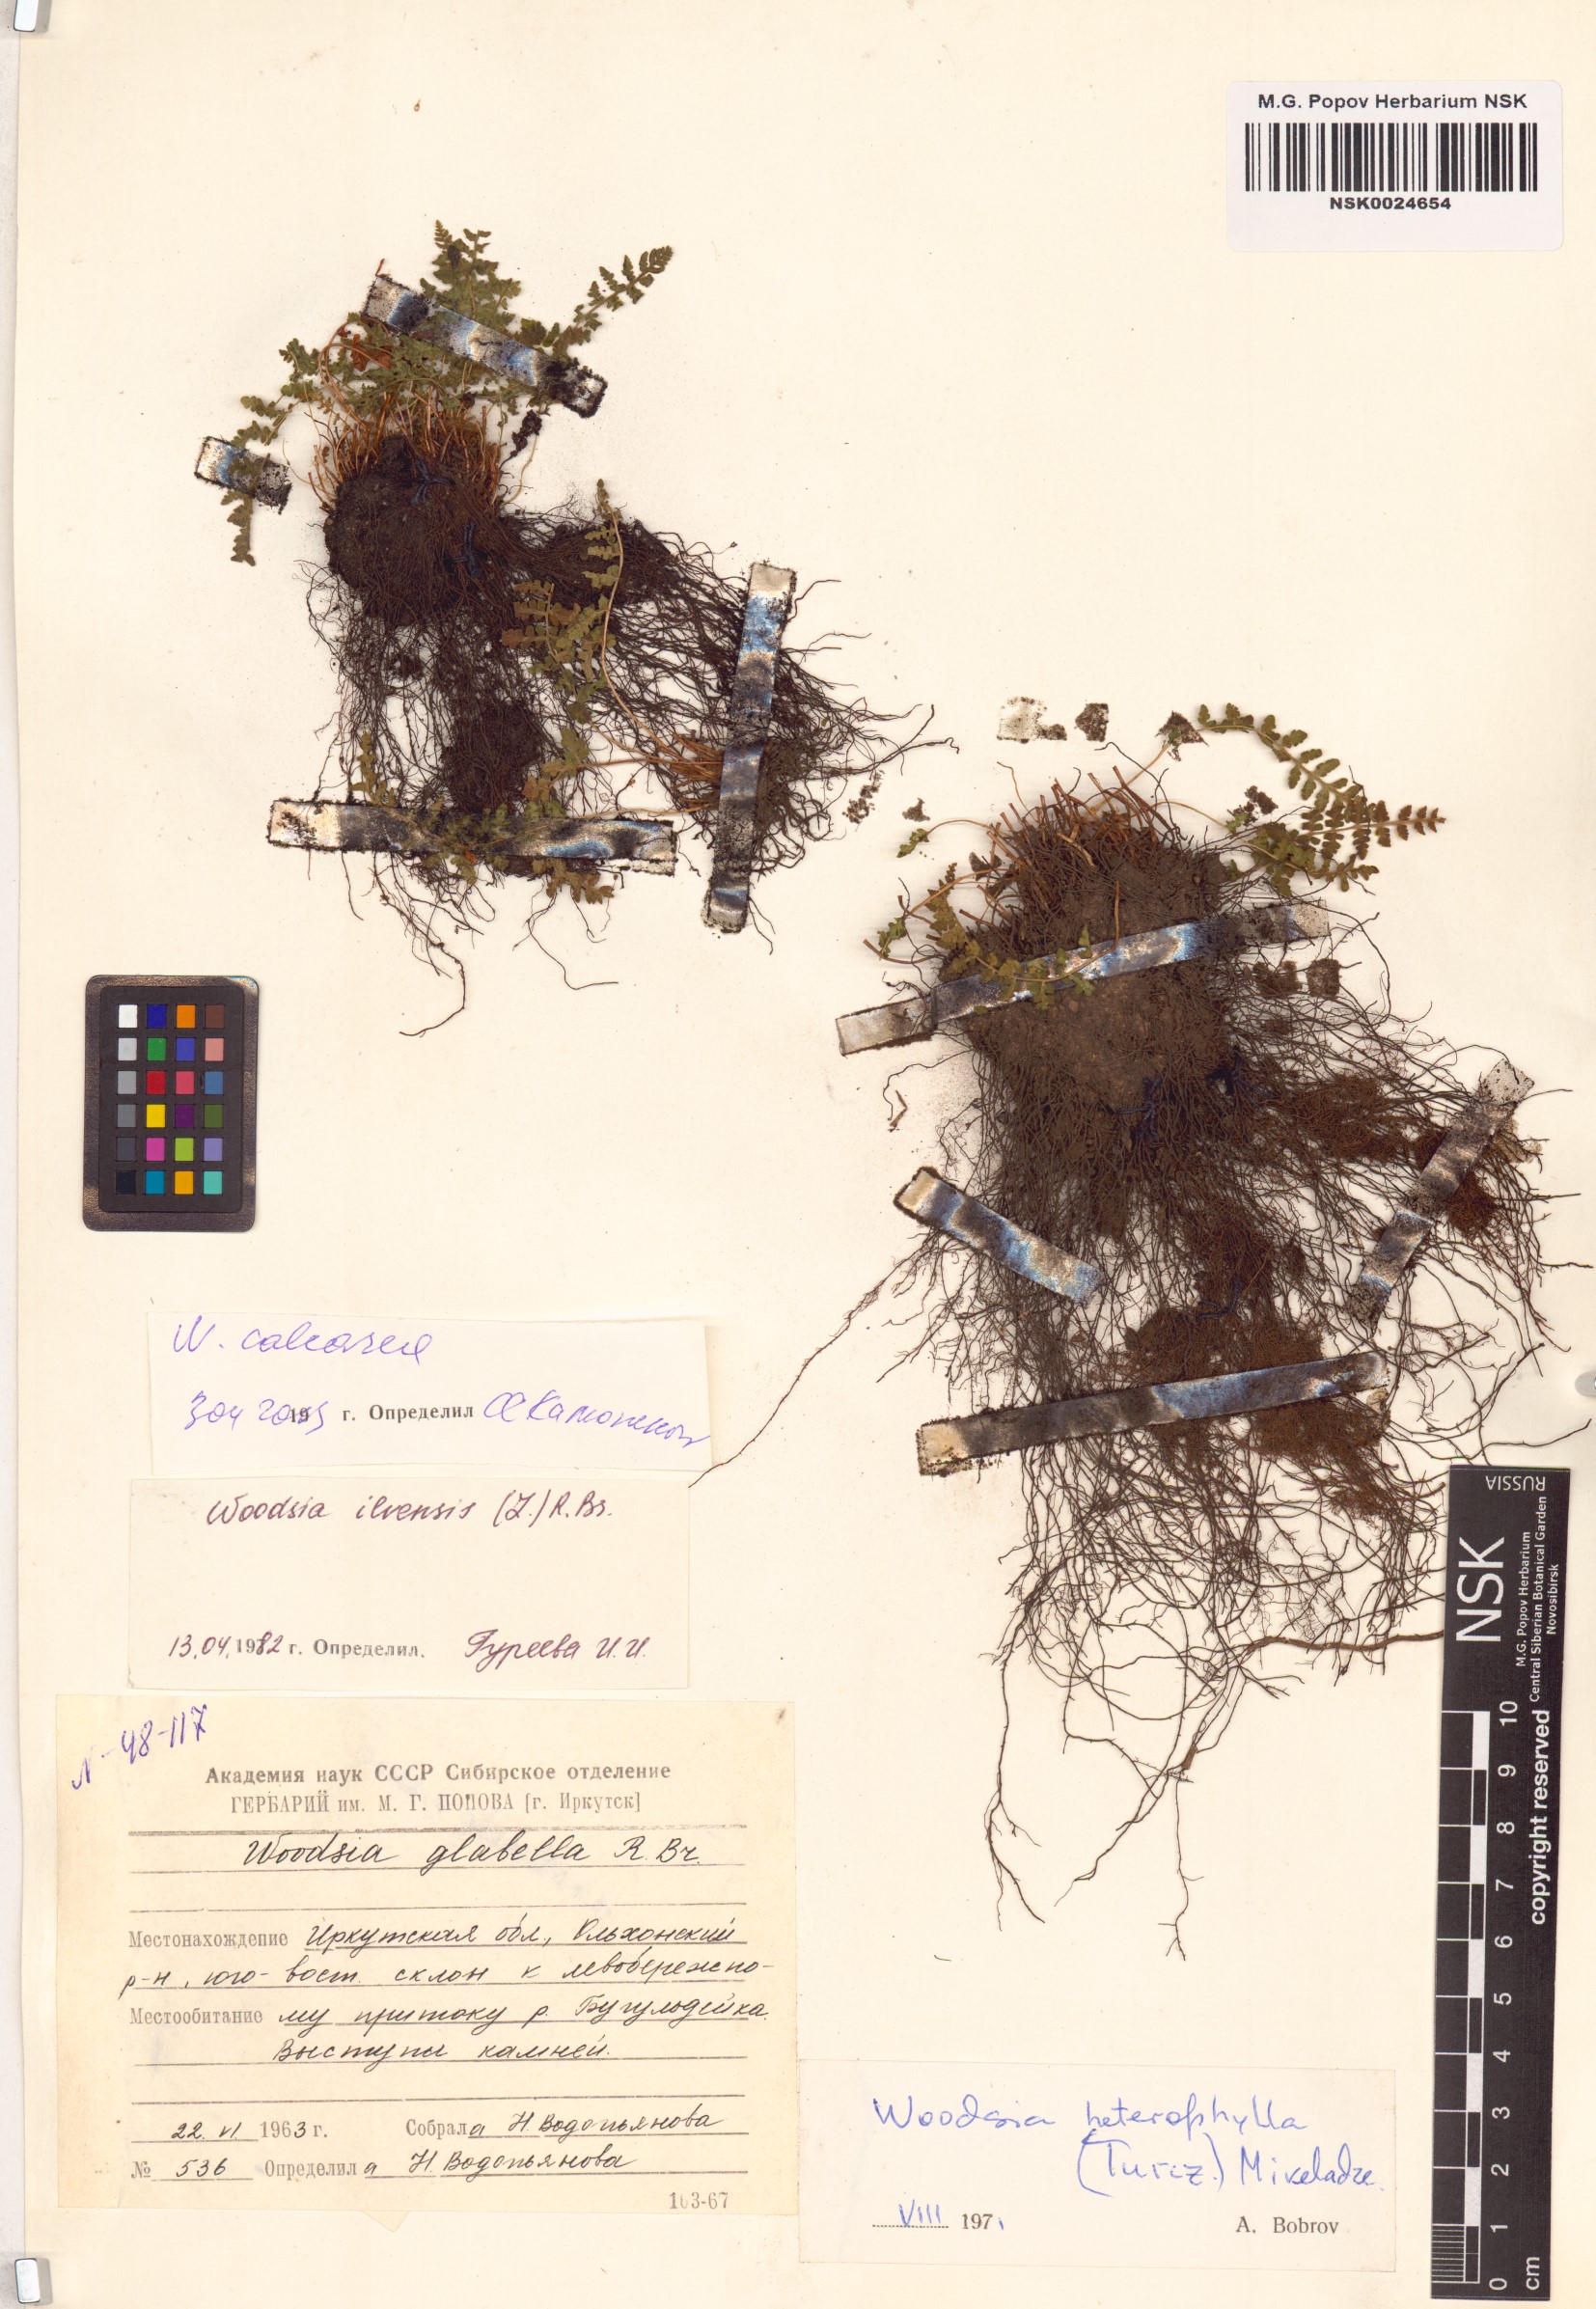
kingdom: Plantae
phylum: Tracheophyta
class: Polypodiopsida
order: Polypodiales
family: Woodsiaceae
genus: Woodsia
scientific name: Woodsia calcarea
